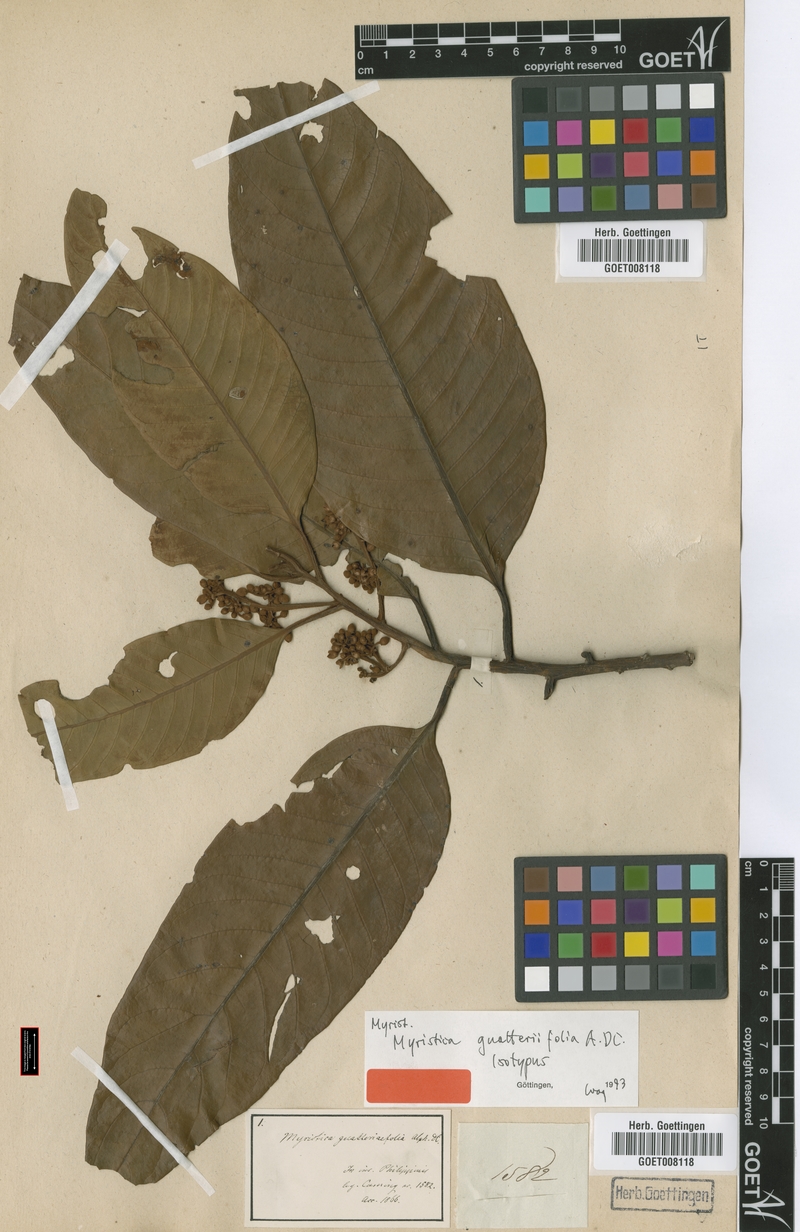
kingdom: Plantae
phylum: Tracheophyta
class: Magnoliopsida
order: Magnoliales
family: Myristicaceae
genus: Myristica
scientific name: Myristica guatteriifolia
